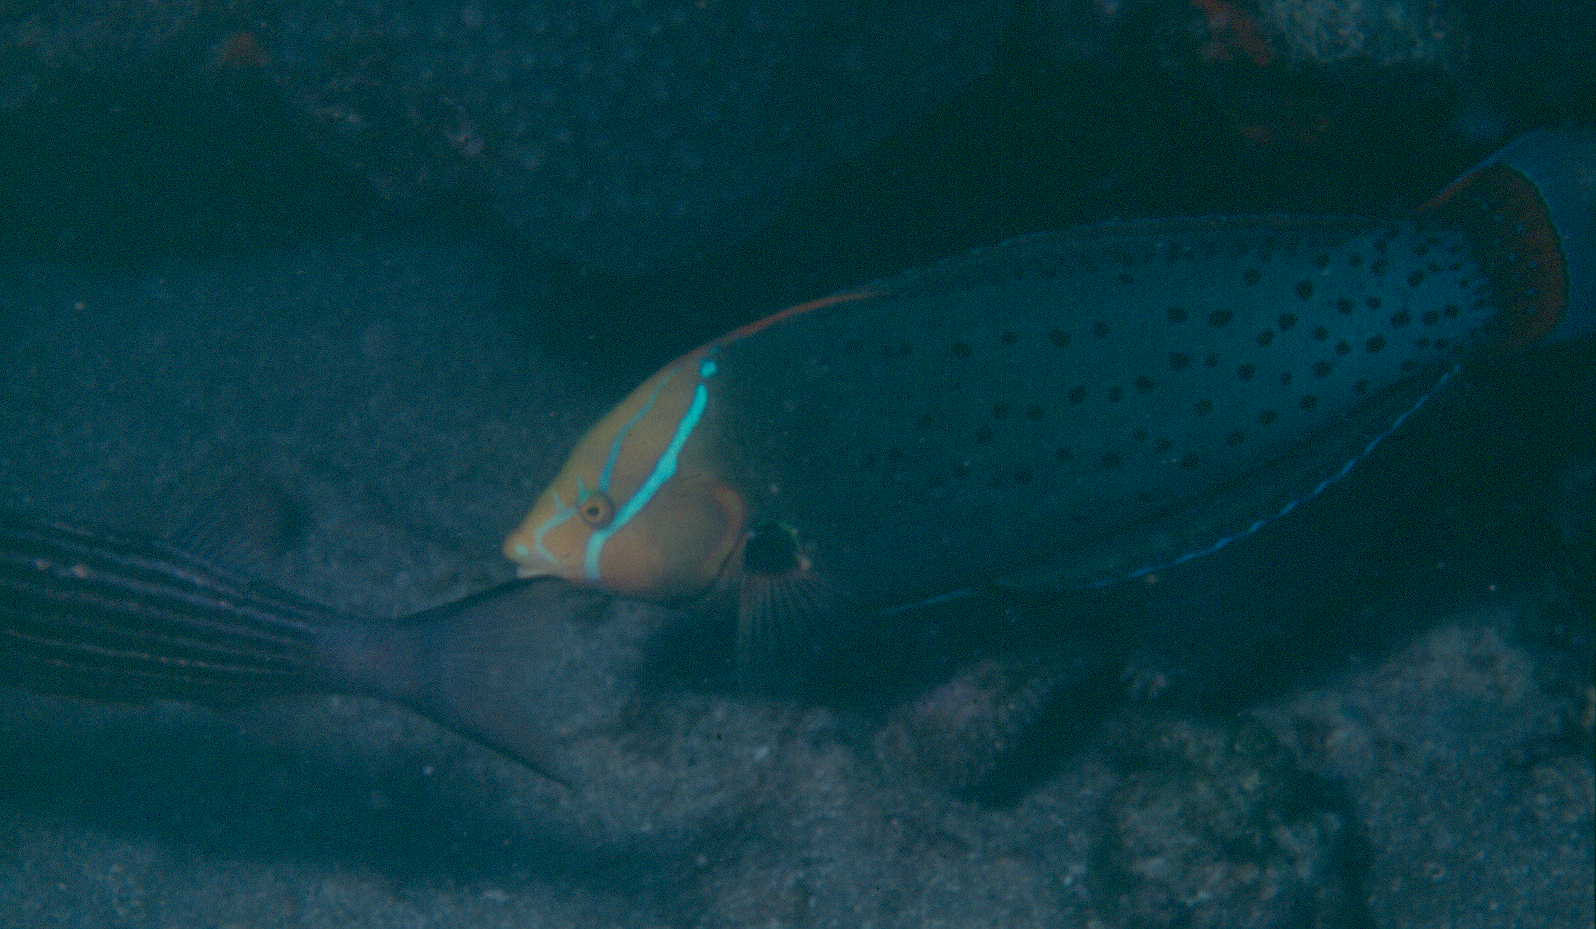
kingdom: Animalia
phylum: Chordata
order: Perciformes
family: Labridae
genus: Coris
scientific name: Coris formosa
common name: Queen coris
